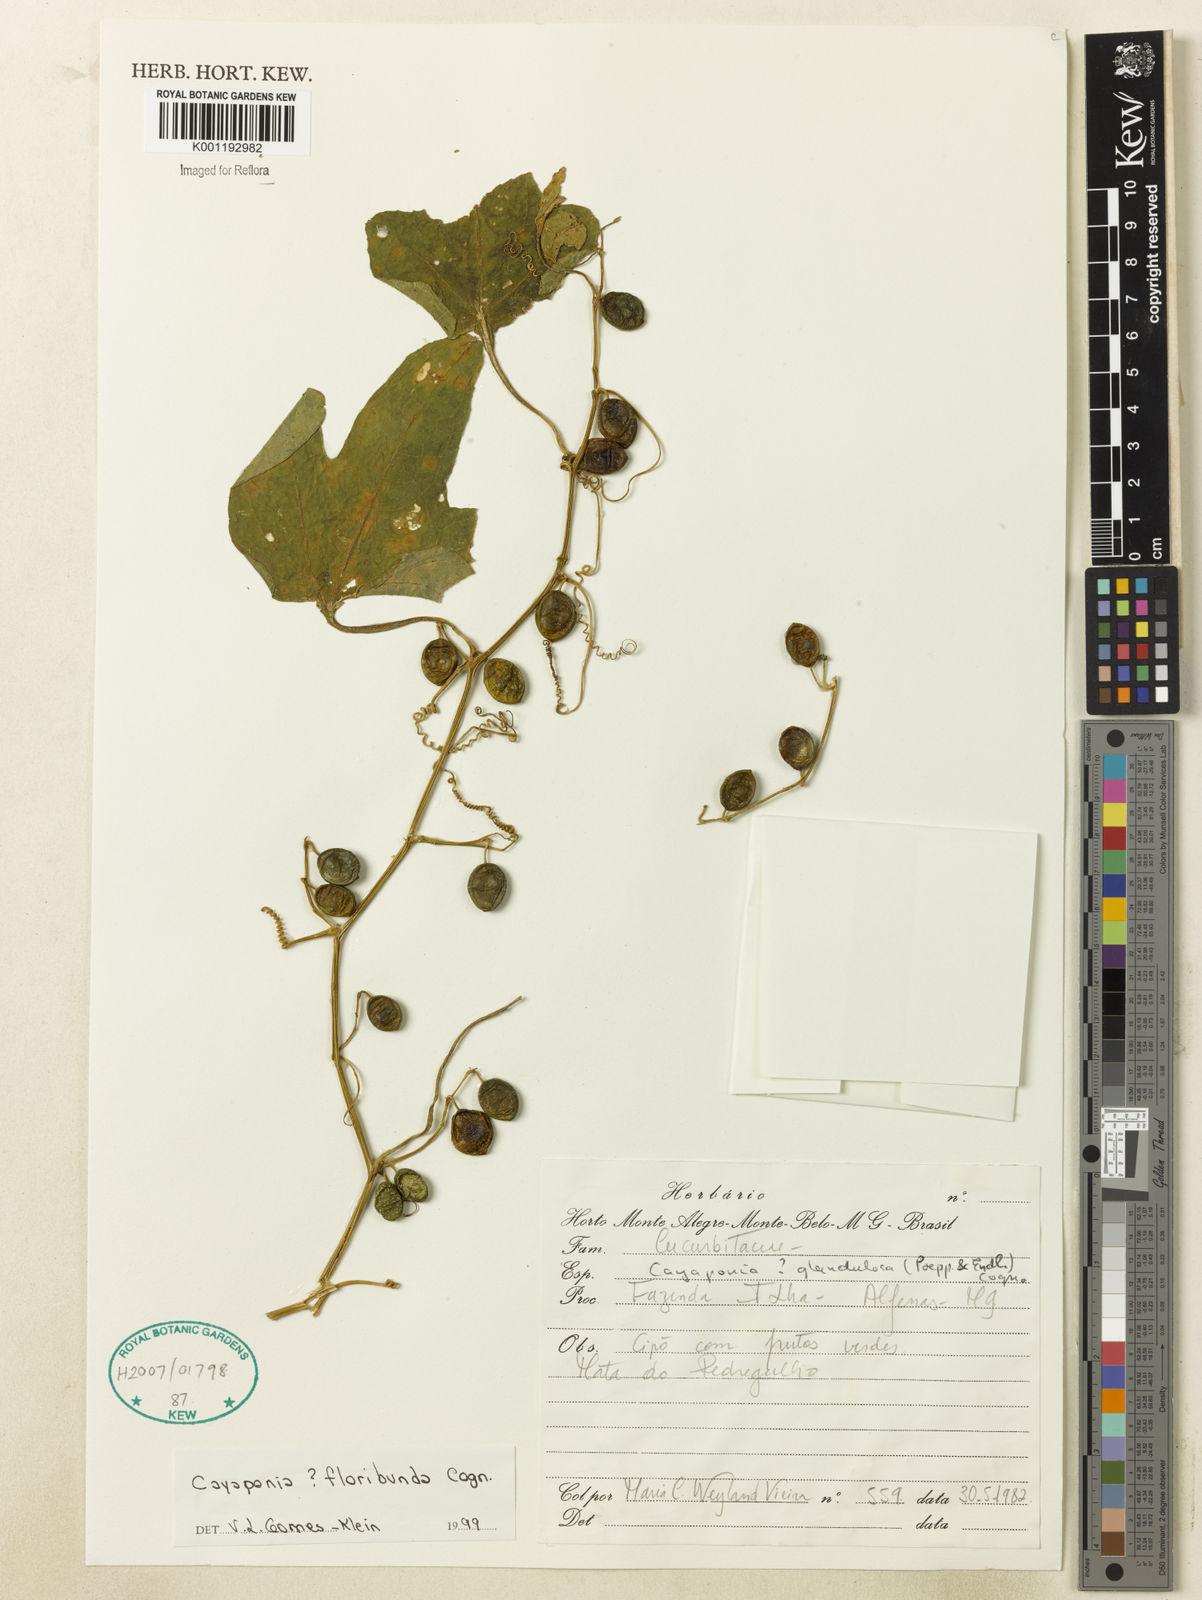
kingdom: Plantae
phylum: Tracheophyta
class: Magnoliopsida
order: Cucurbitales
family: Cucurbitaceae
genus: Cayaponia
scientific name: Cayaponia floribunda
